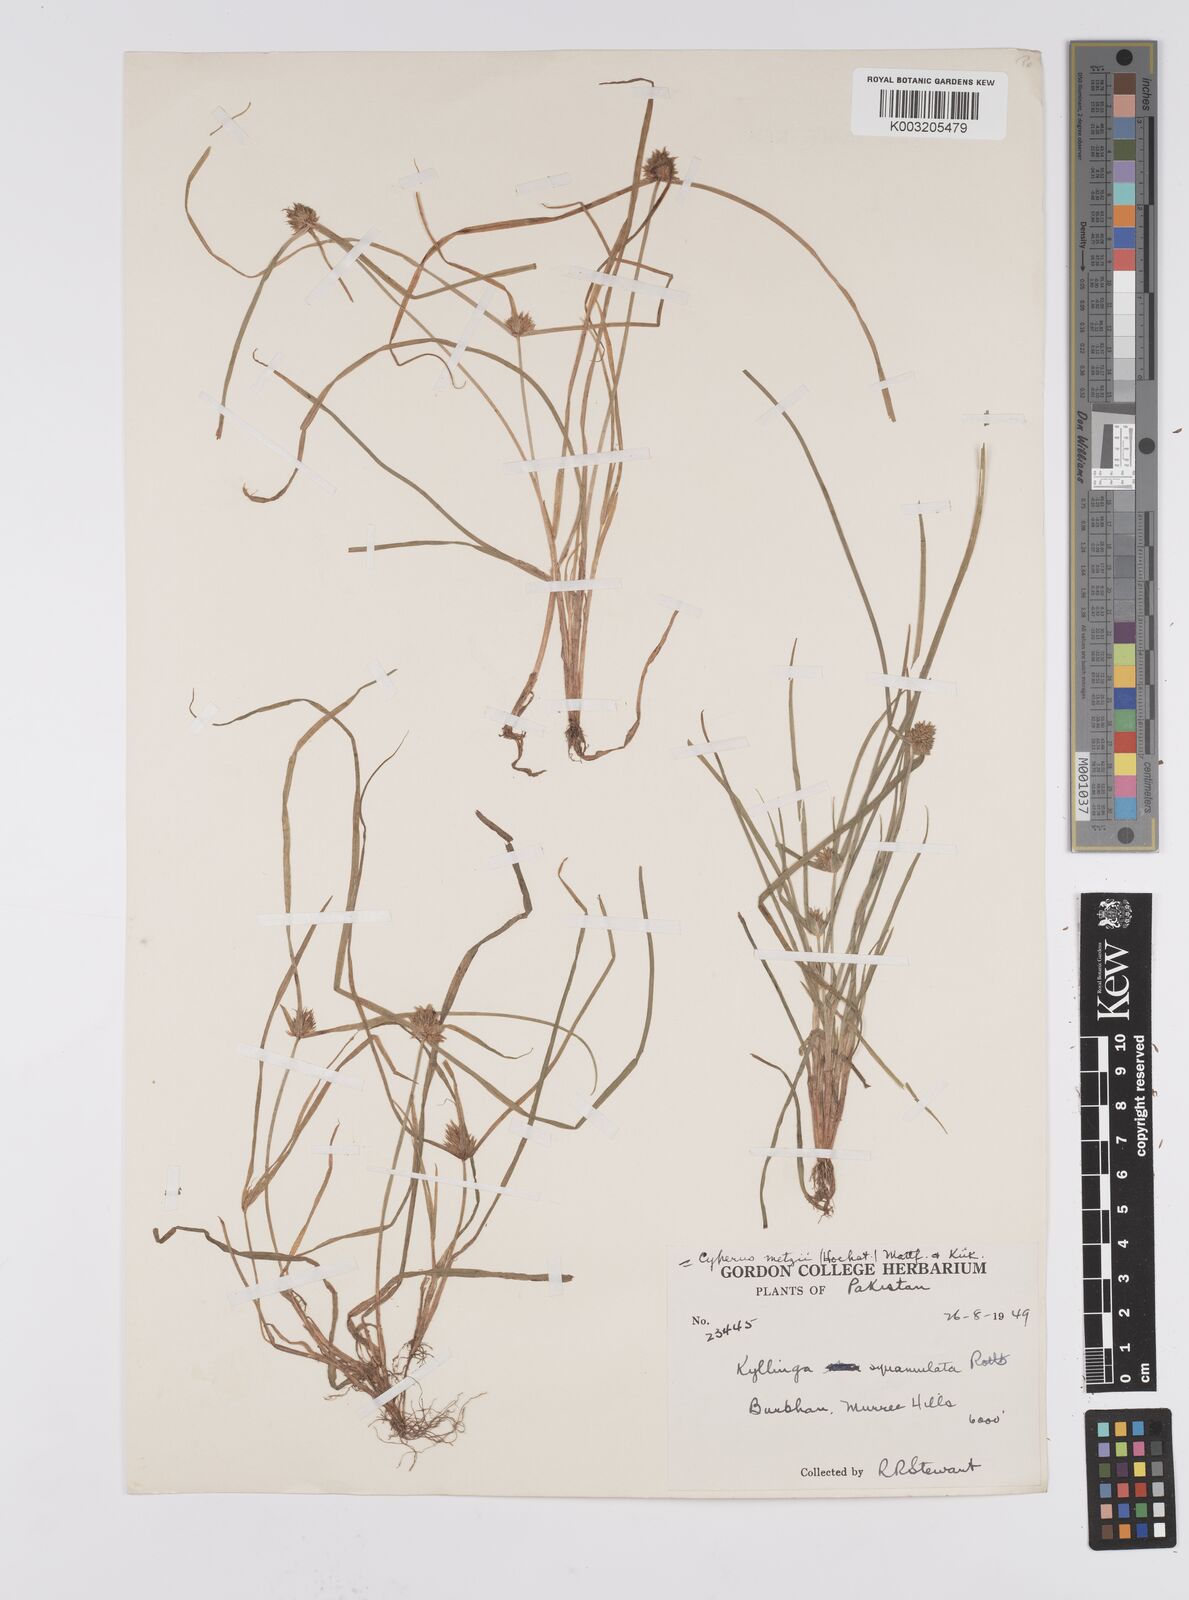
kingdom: Plantae
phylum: Tracheophyta
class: Liliopsida
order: Poales
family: Cyperaceae
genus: Cyperus
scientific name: Cyperus
